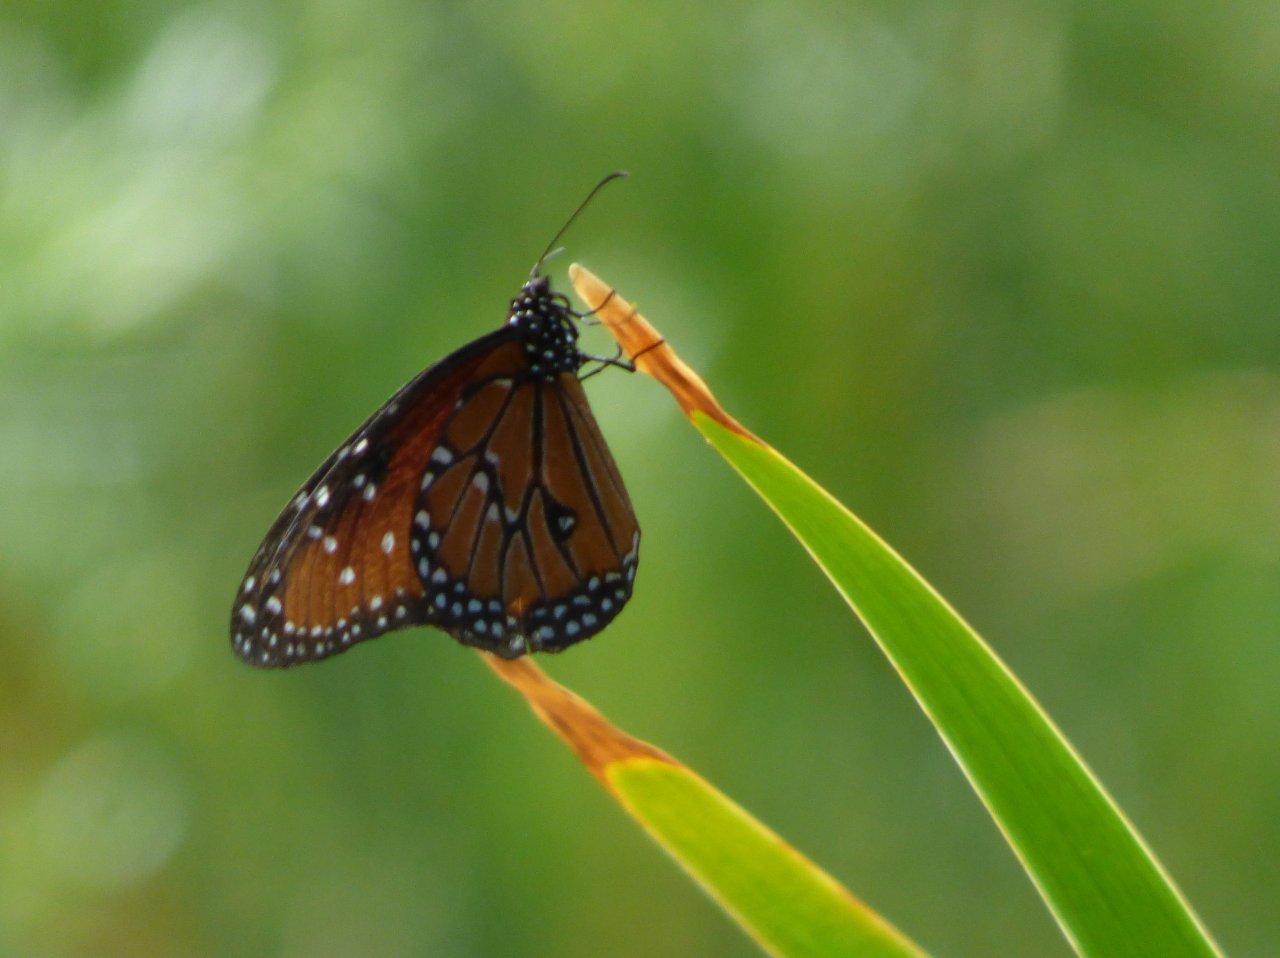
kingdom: Animalia
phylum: Arthropoda
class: Insecta
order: Lepidoptera
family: Nymphalidae
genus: Danaus
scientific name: Danaus gilippus
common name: Queen
